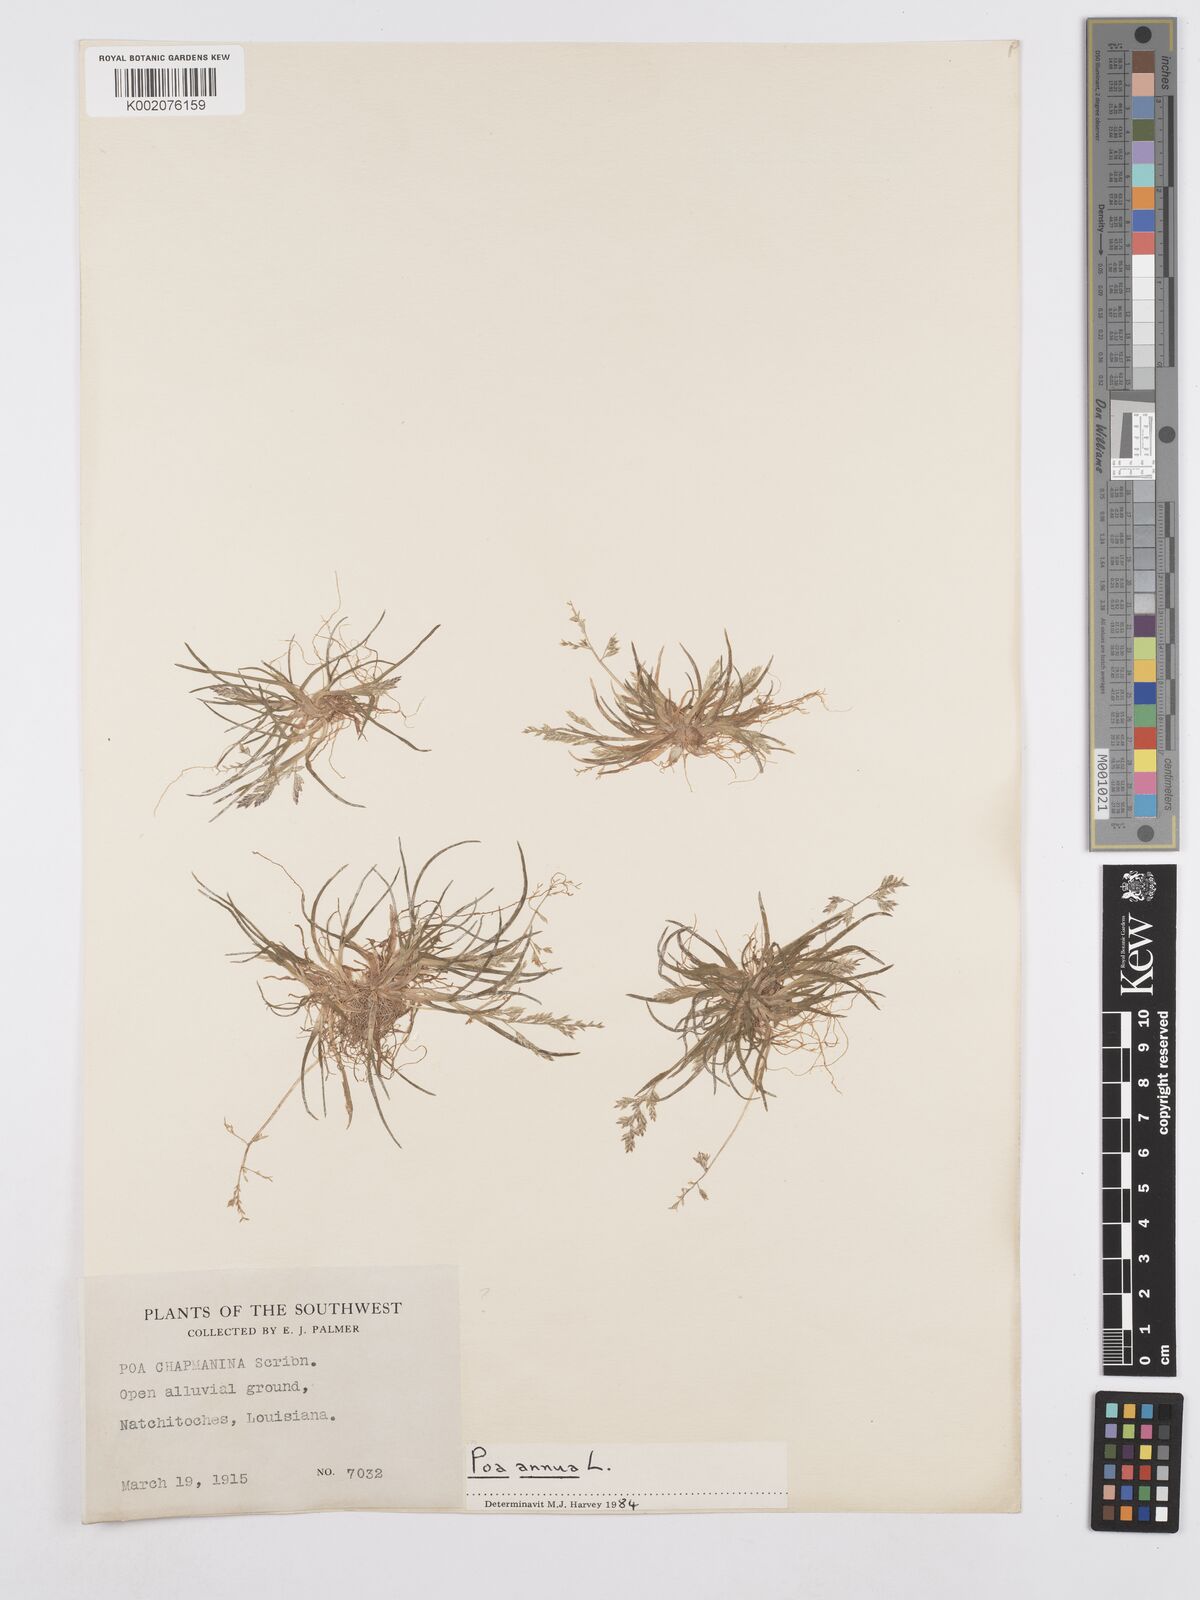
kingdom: Plantae
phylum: Tracheophyta
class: Liliopsida
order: Poales
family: Poaceae
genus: Poa
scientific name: Poa annua
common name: Annual bluegrass
